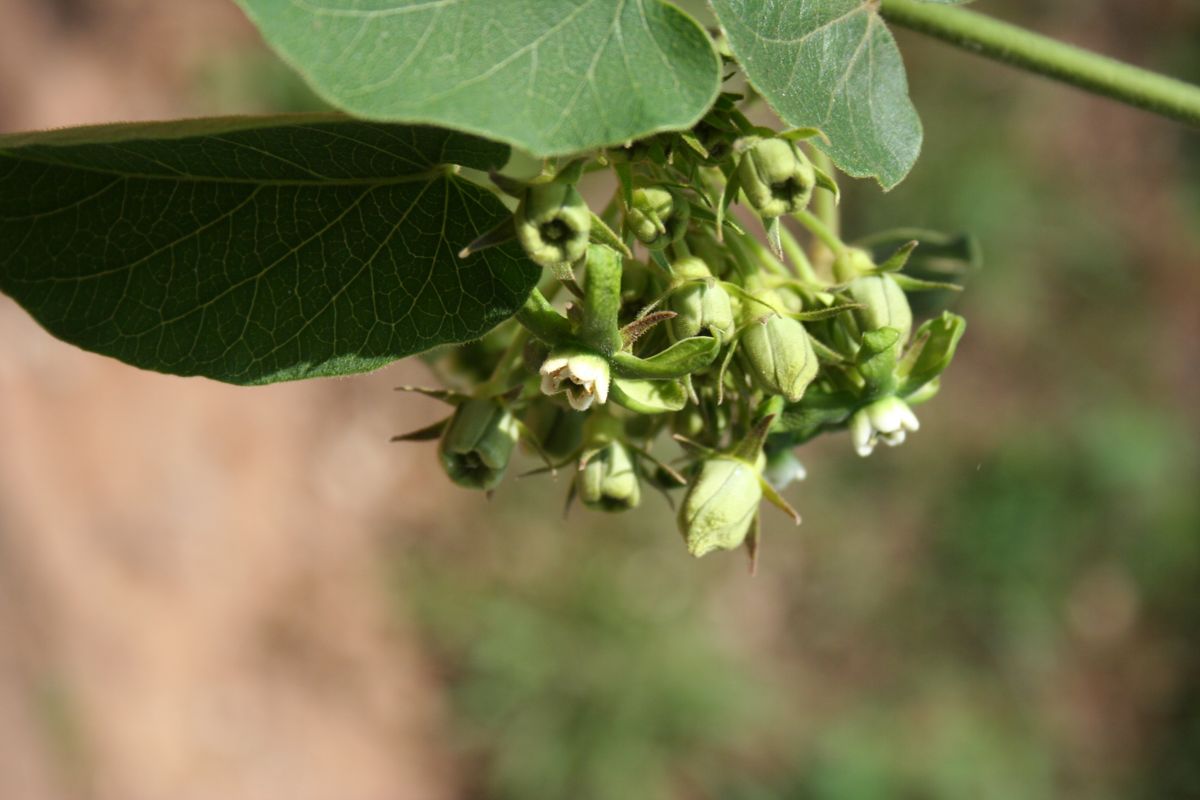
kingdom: Plantae
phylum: Tracheophyta
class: Magnoliopsida
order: Gentianales
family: Apocynaceae
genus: Gonolobus
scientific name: Gonolobus lasiostemma
